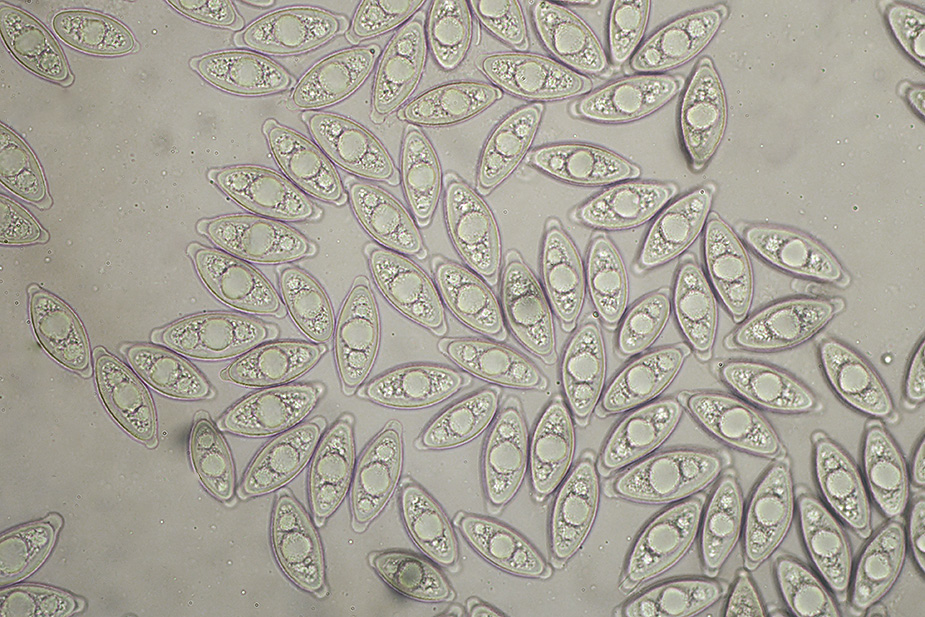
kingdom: Fungi
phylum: Ascomycota
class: Pezizomycetes
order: Pezizales
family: Discinaceae
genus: Gyromitra
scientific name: Gyromitra gigas
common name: kæmpe-stenmorkel
